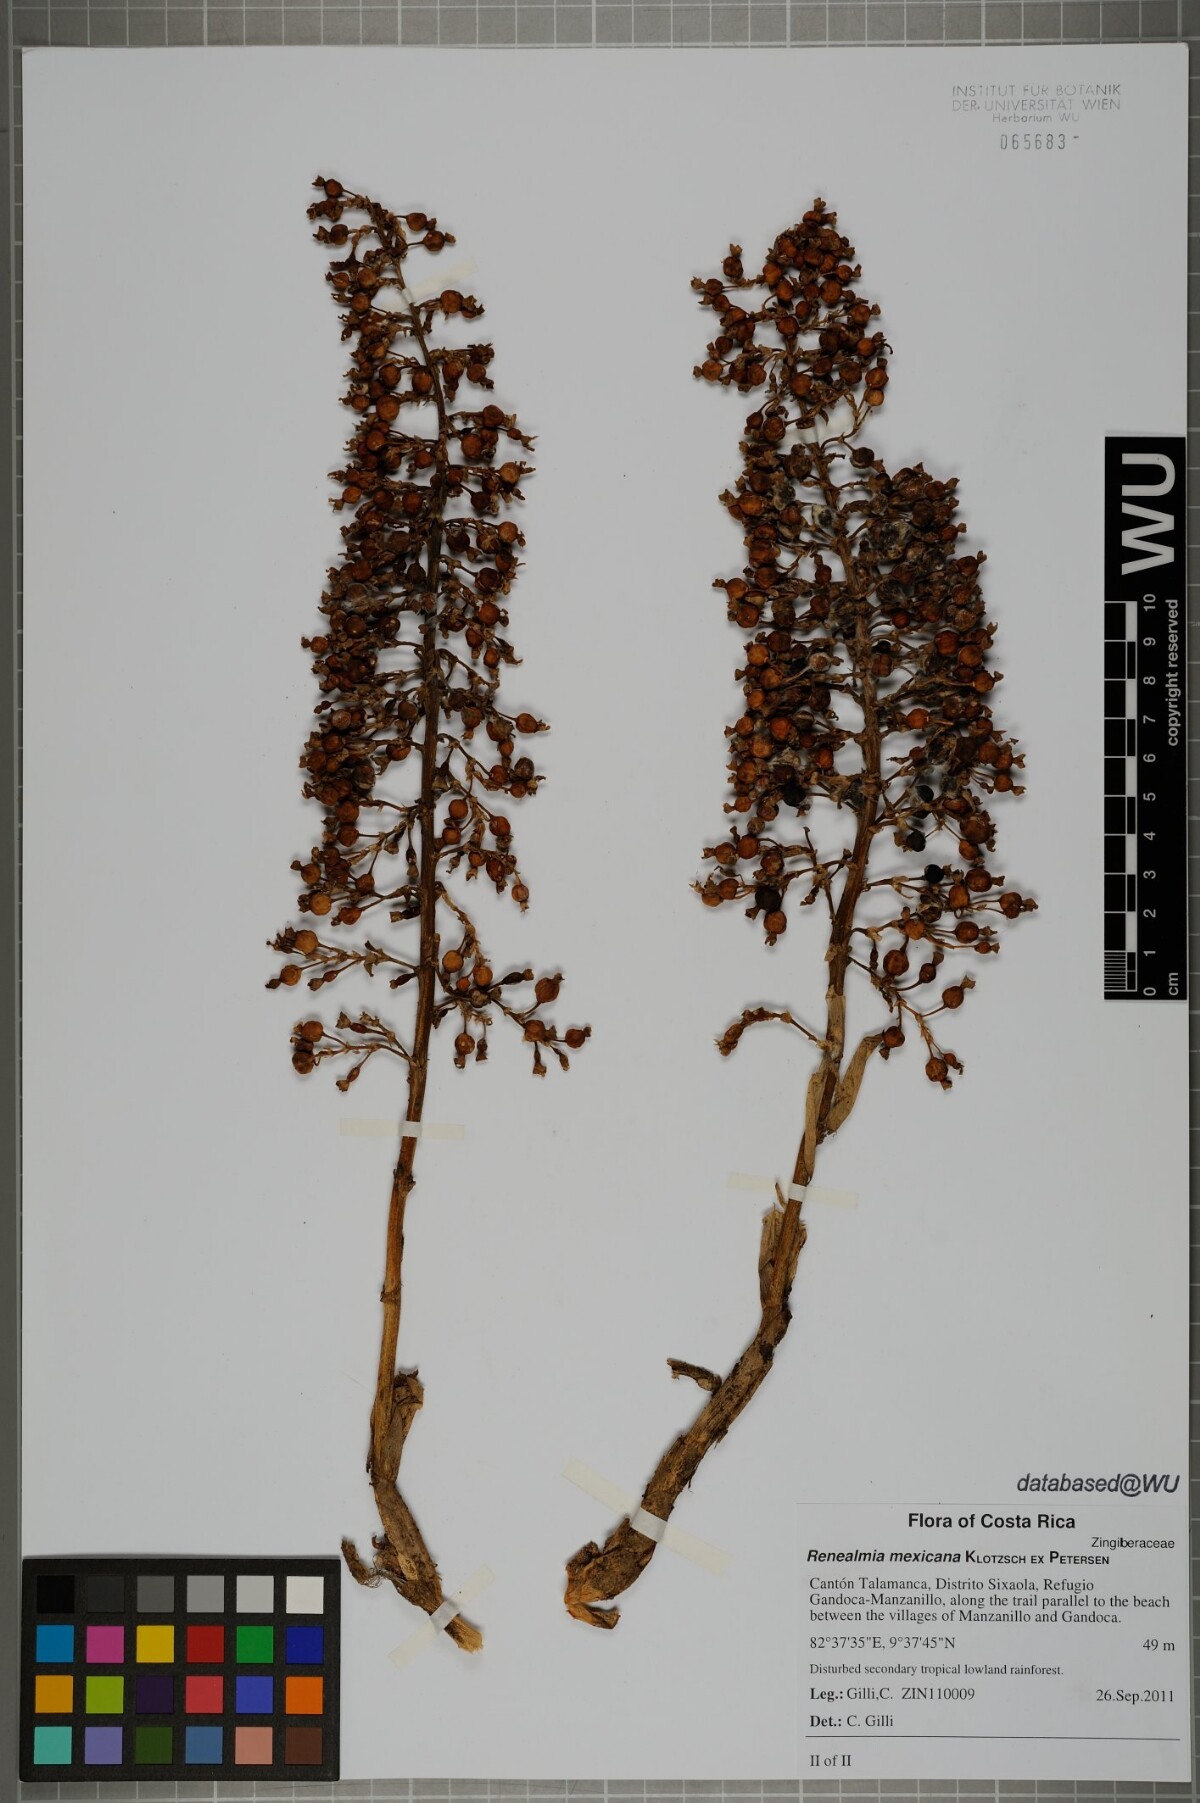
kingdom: Plantae
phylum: Tracheophyta
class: Liliopsida
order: Zingiberales
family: Zingiberaceae
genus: Renealmia
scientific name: Renealmia mexicana
